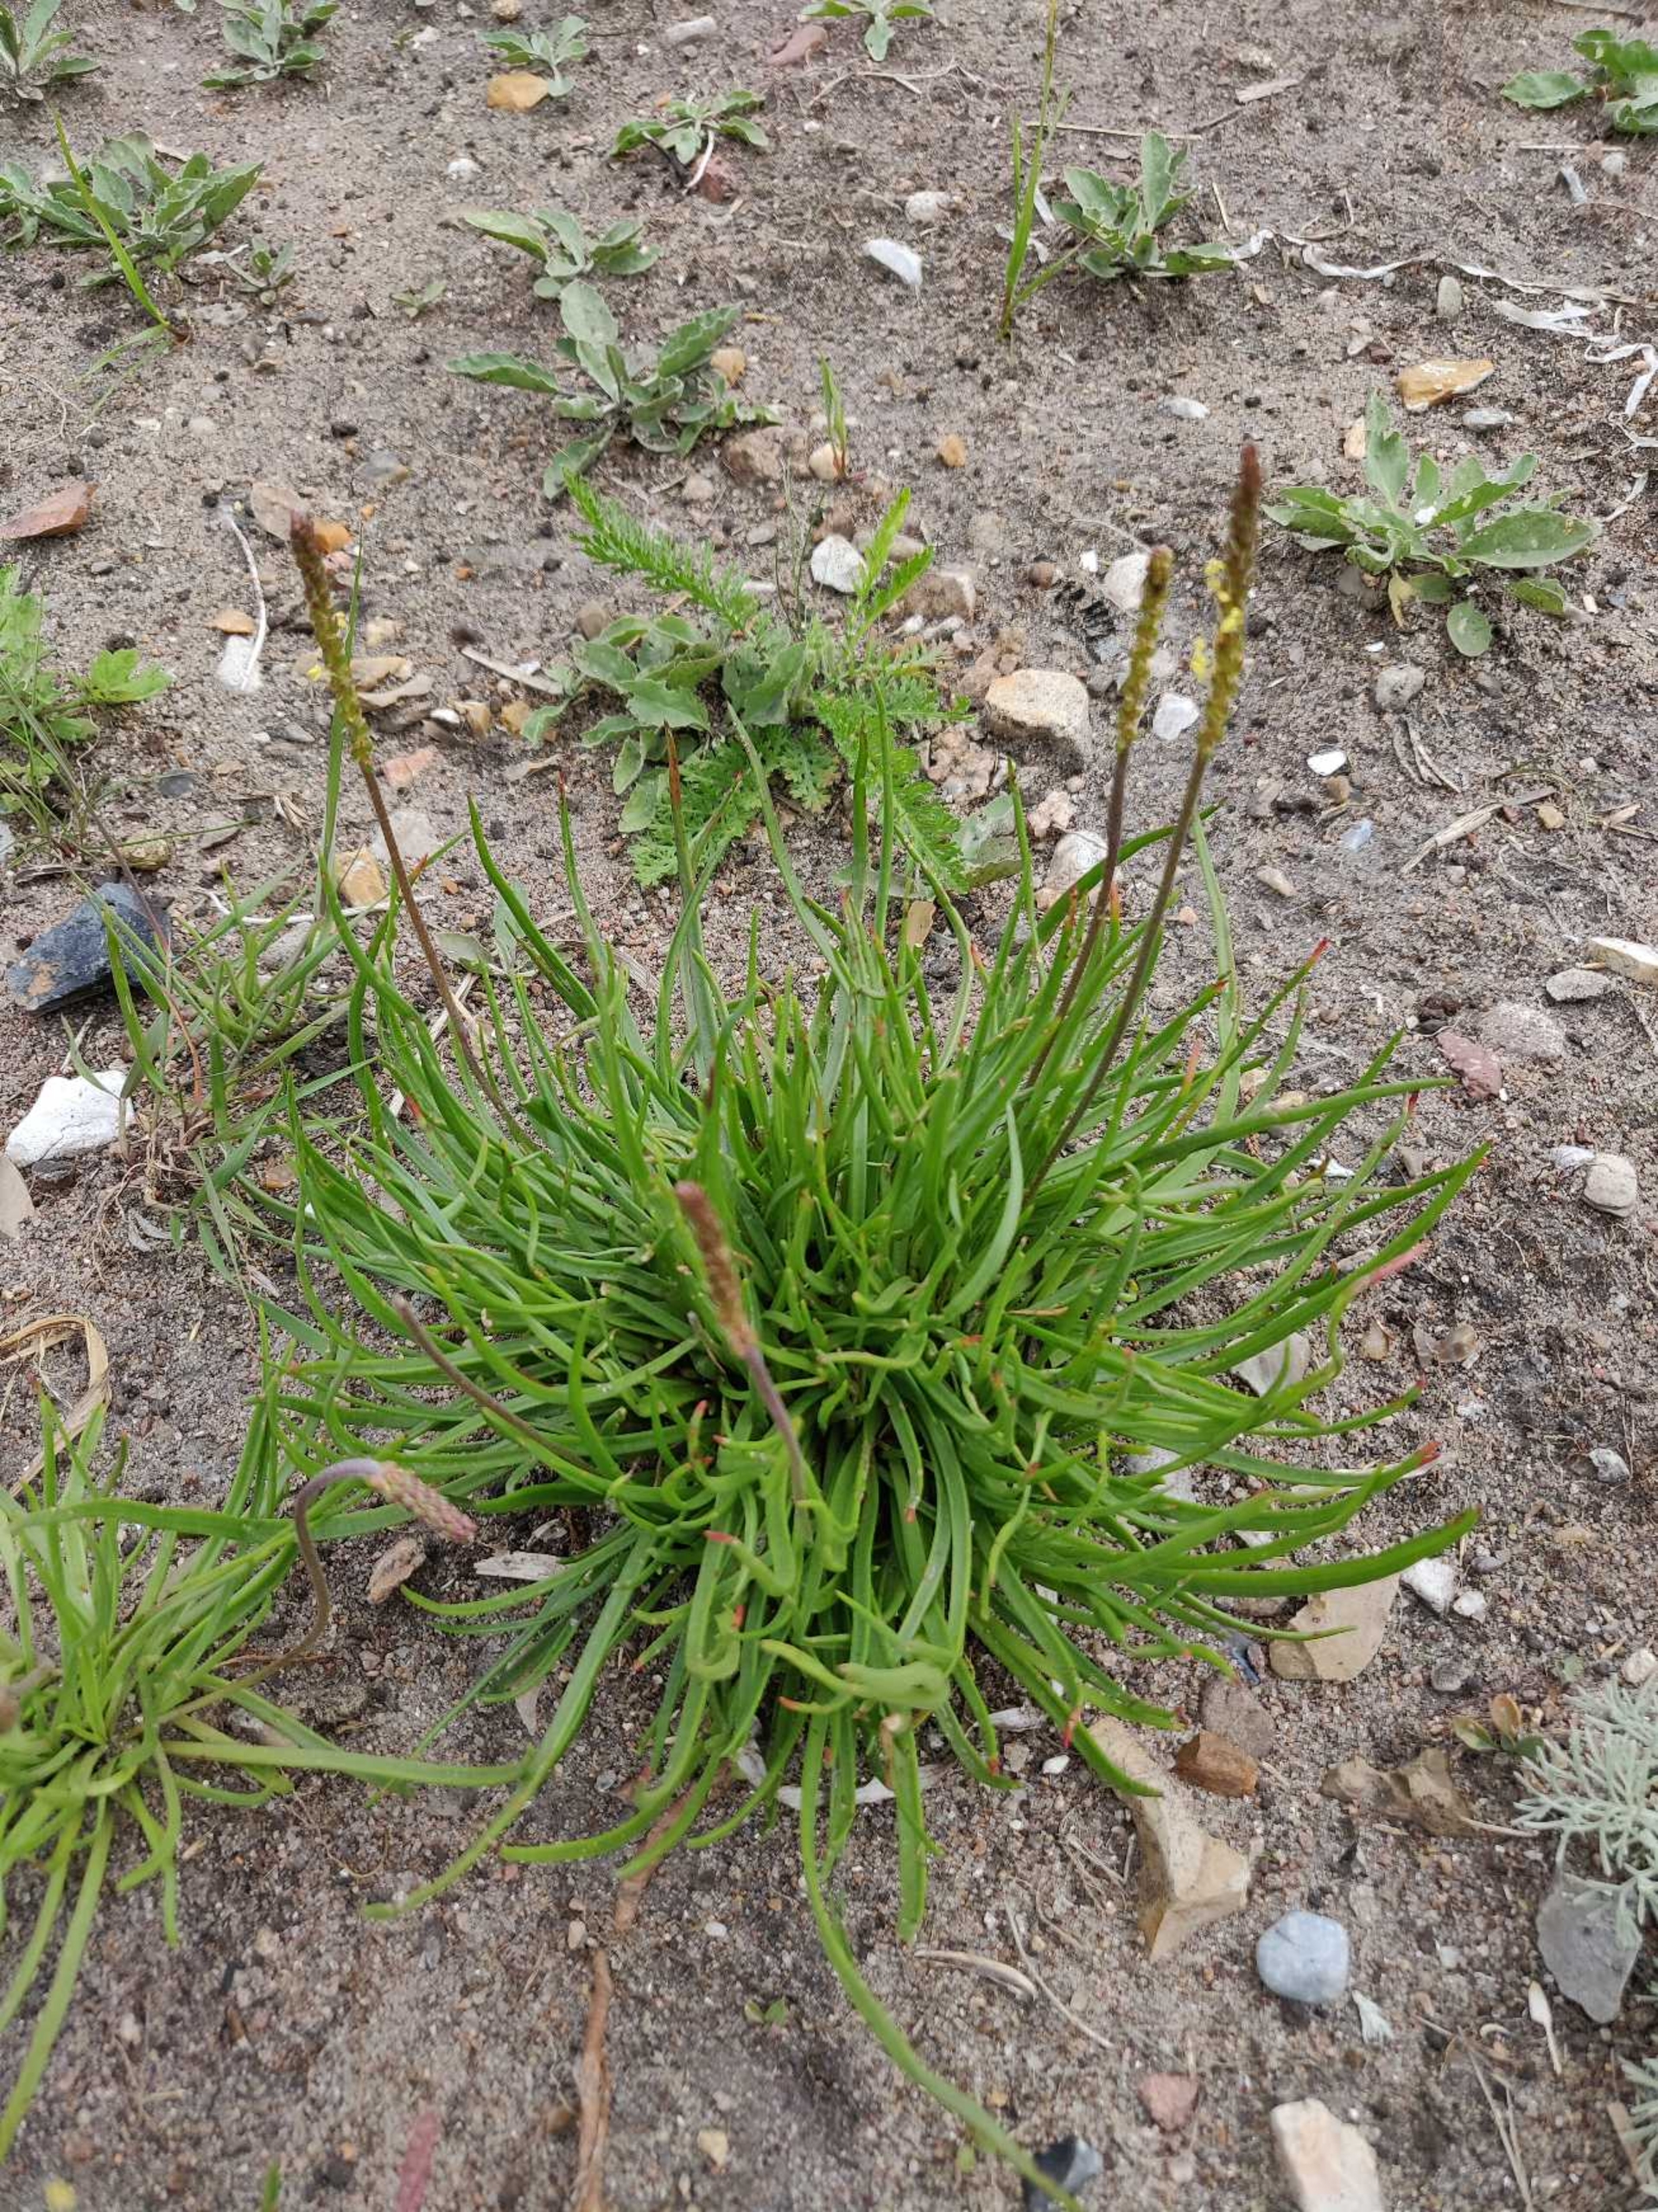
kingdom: Plantae
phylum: Tracheophyta
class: Magnoliopsida
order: Lamiales
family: Plantaginaceae
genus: Plantago
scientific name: Plantago maritima
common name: Strand-vejbred
